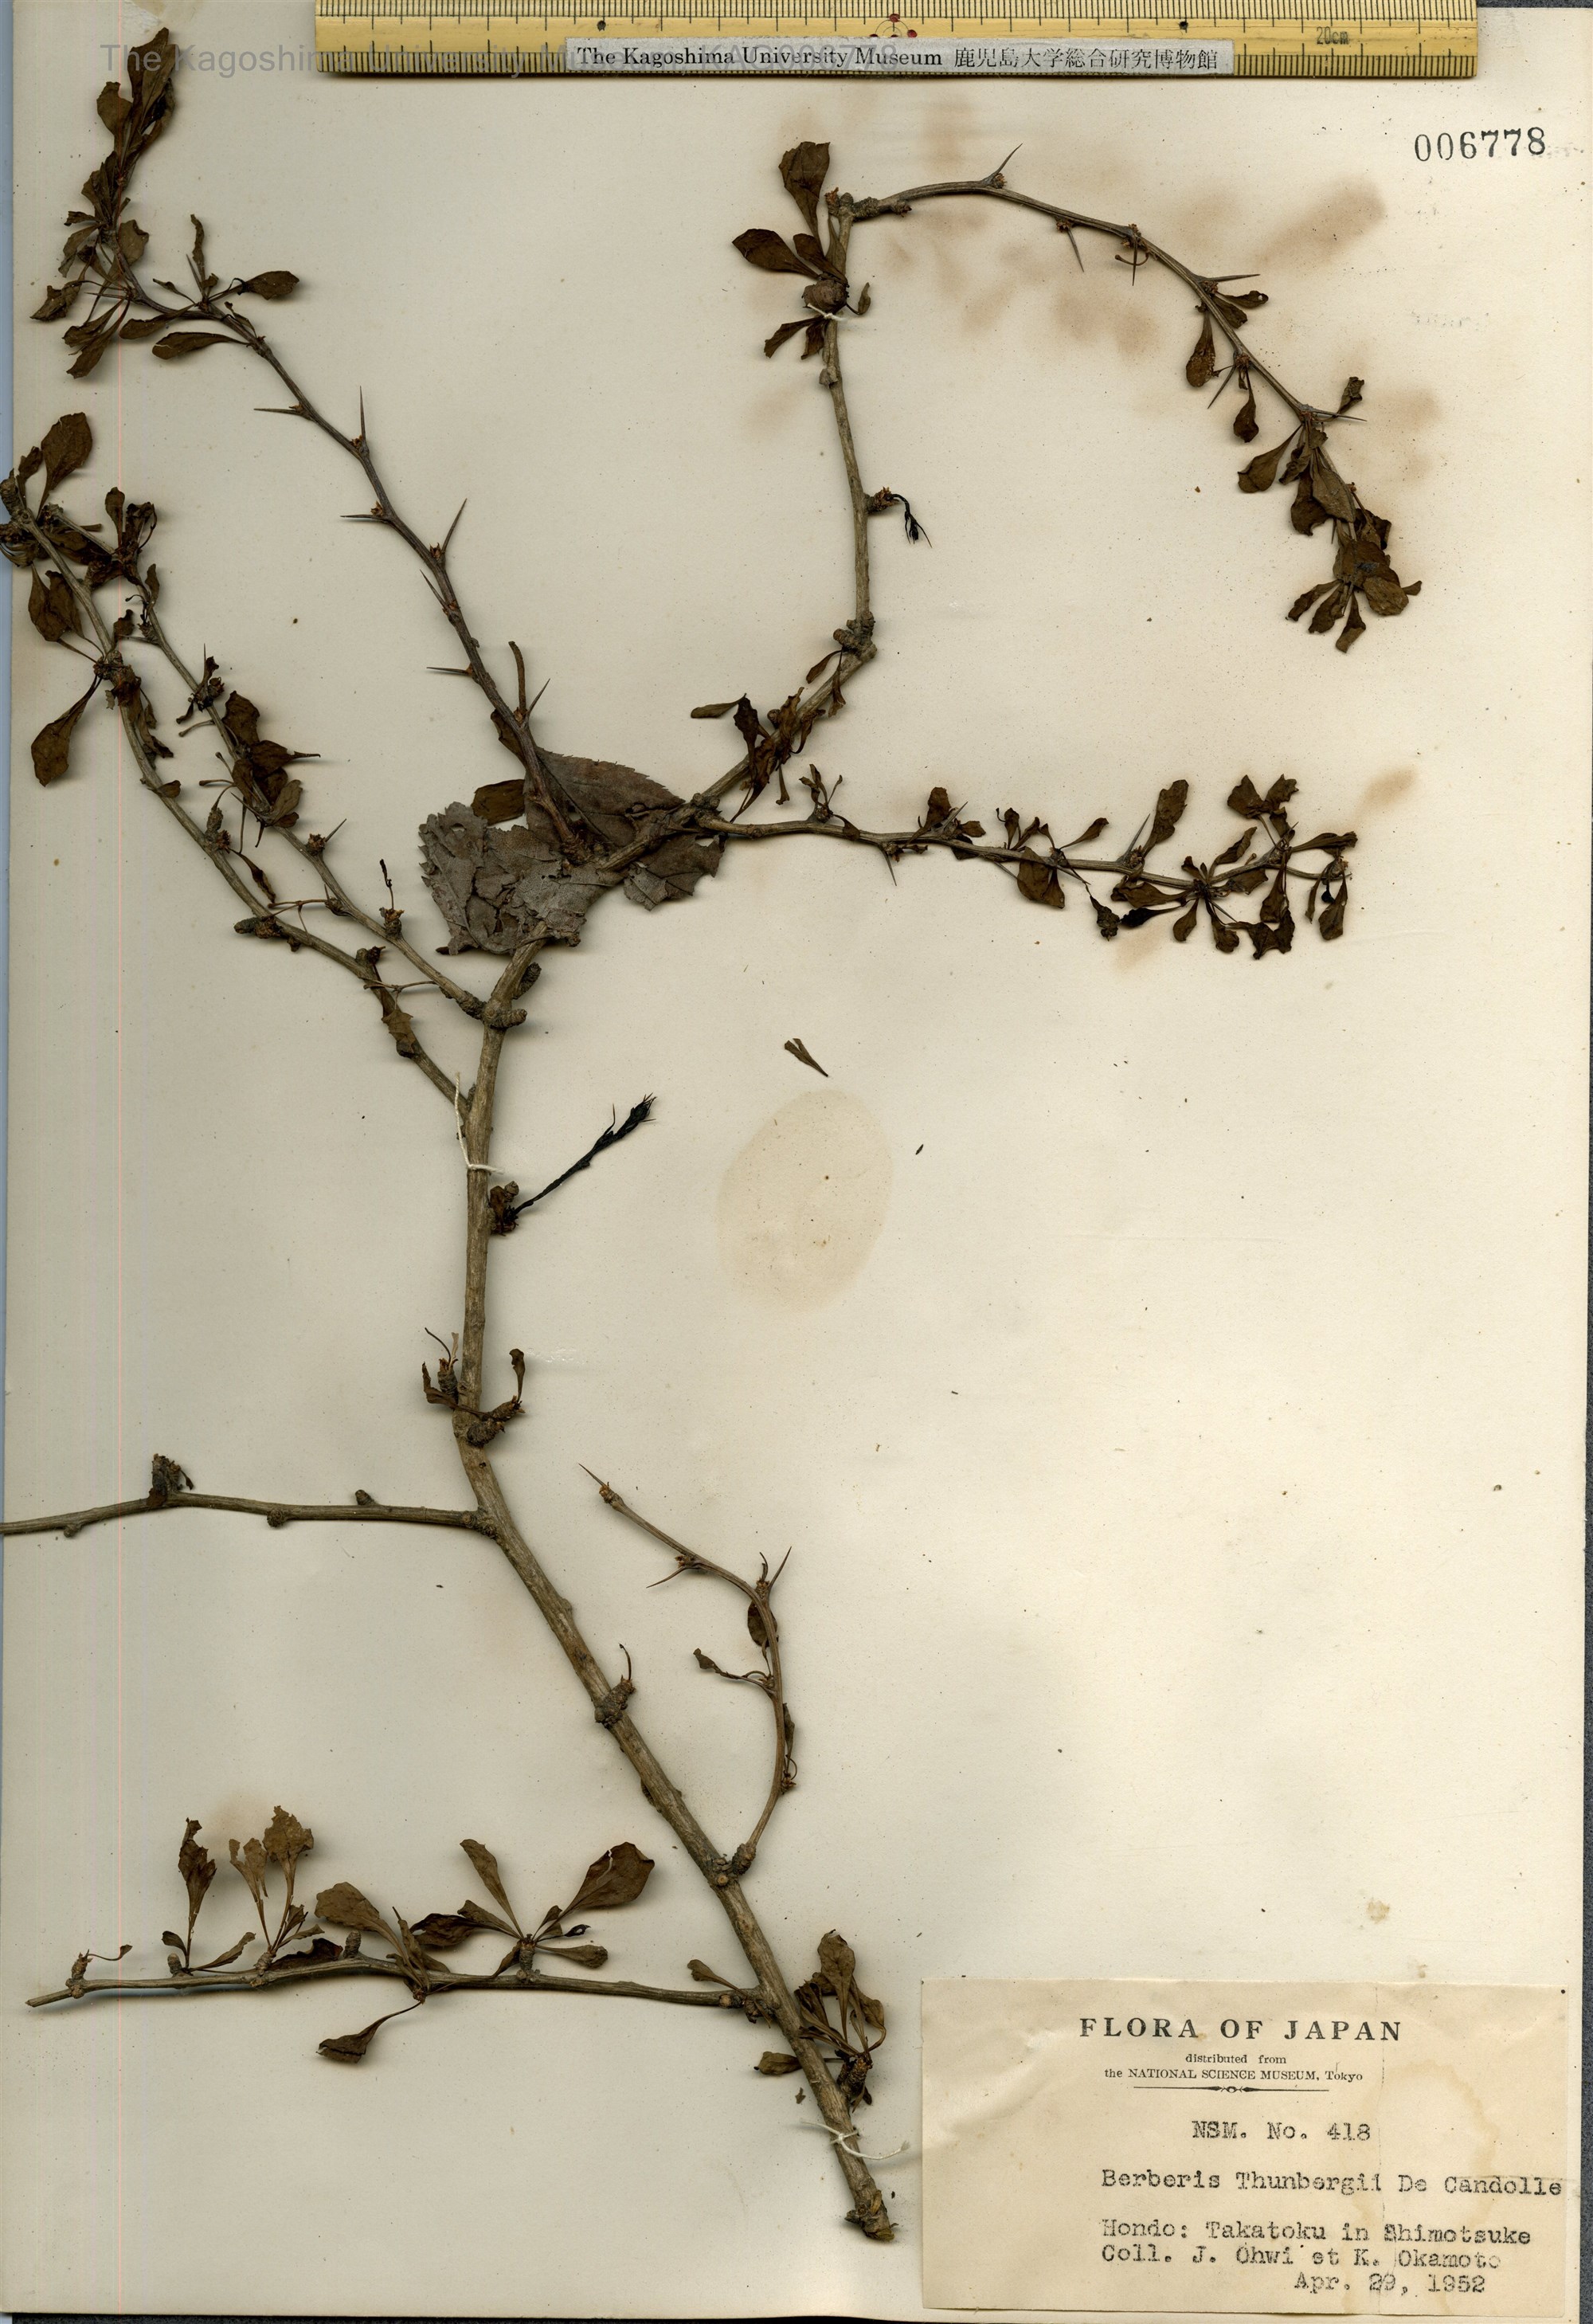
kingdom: Plantae
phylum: Tracheophyta
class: Magnoliopsida
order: Ranunculales
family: Berberidaceae
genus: Berberis
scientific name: Berberis thunbergii
